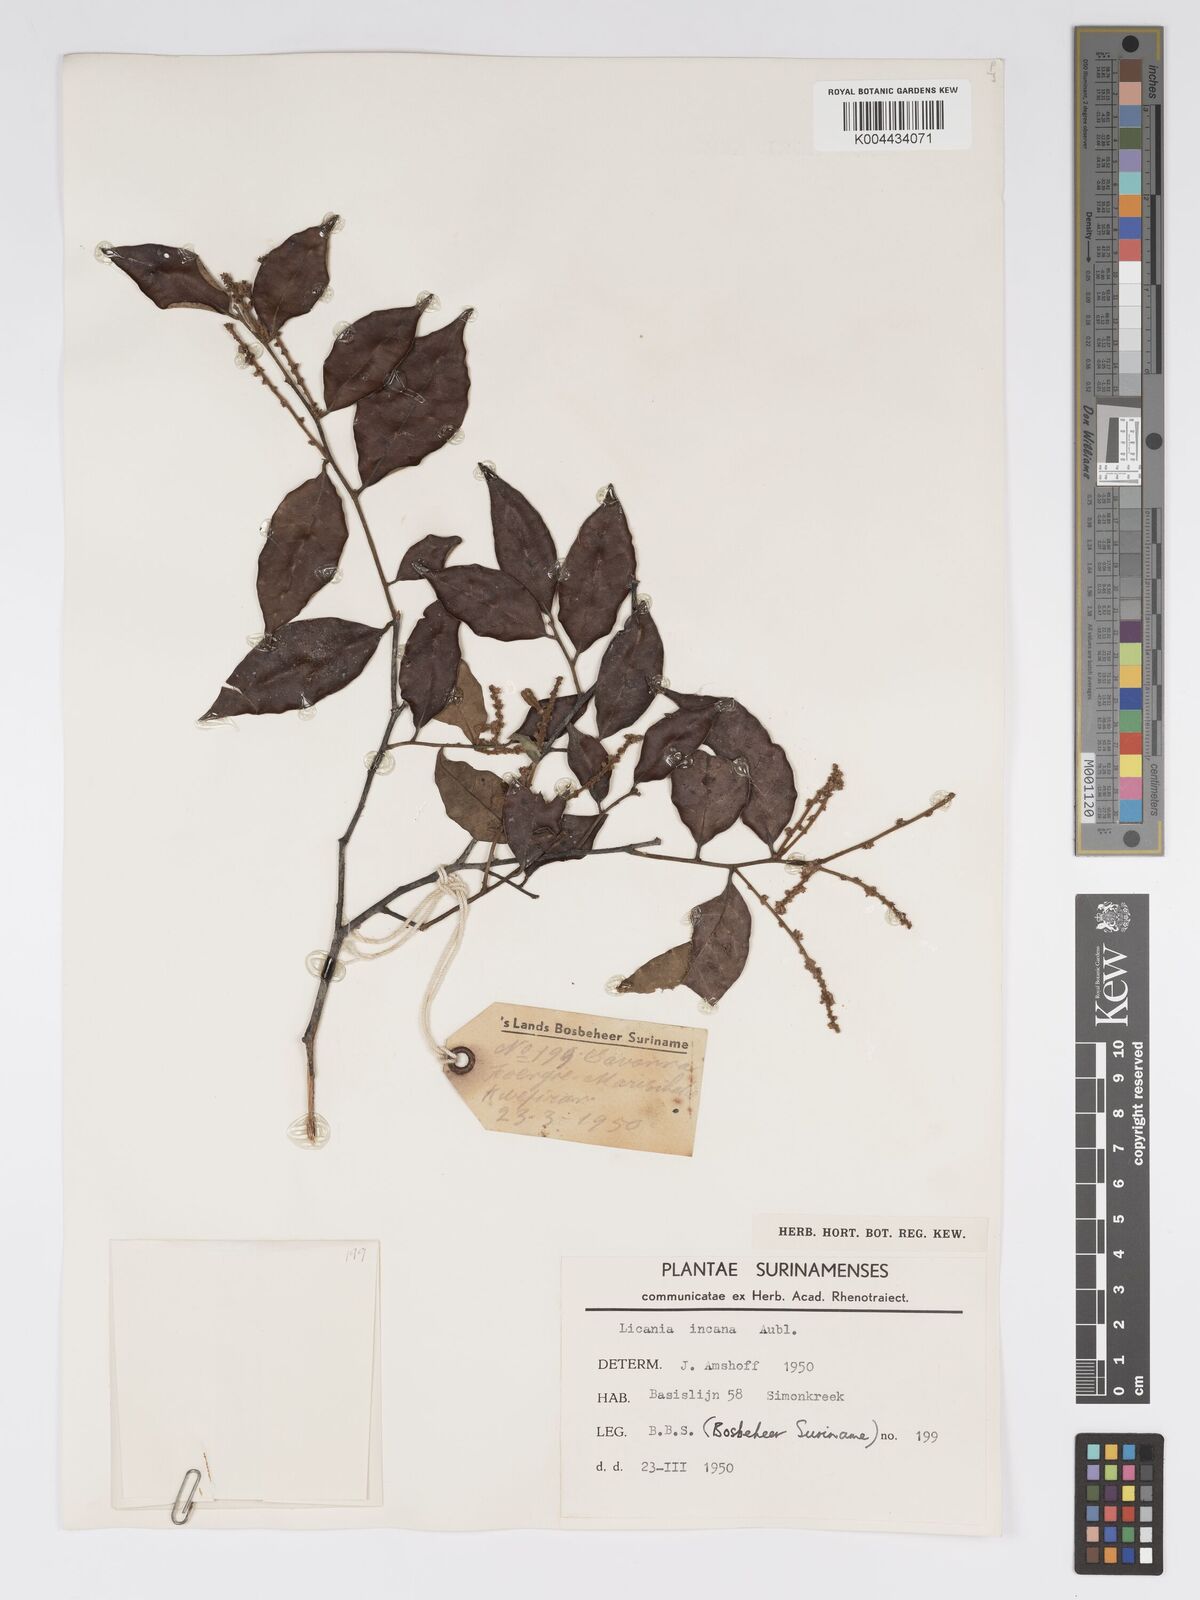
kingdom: Plantae
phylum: Tracheophyta
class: Magnoliopsida
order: Malpighiales
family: Chrysobalanaceae
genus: Licania
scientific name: Licania incana
